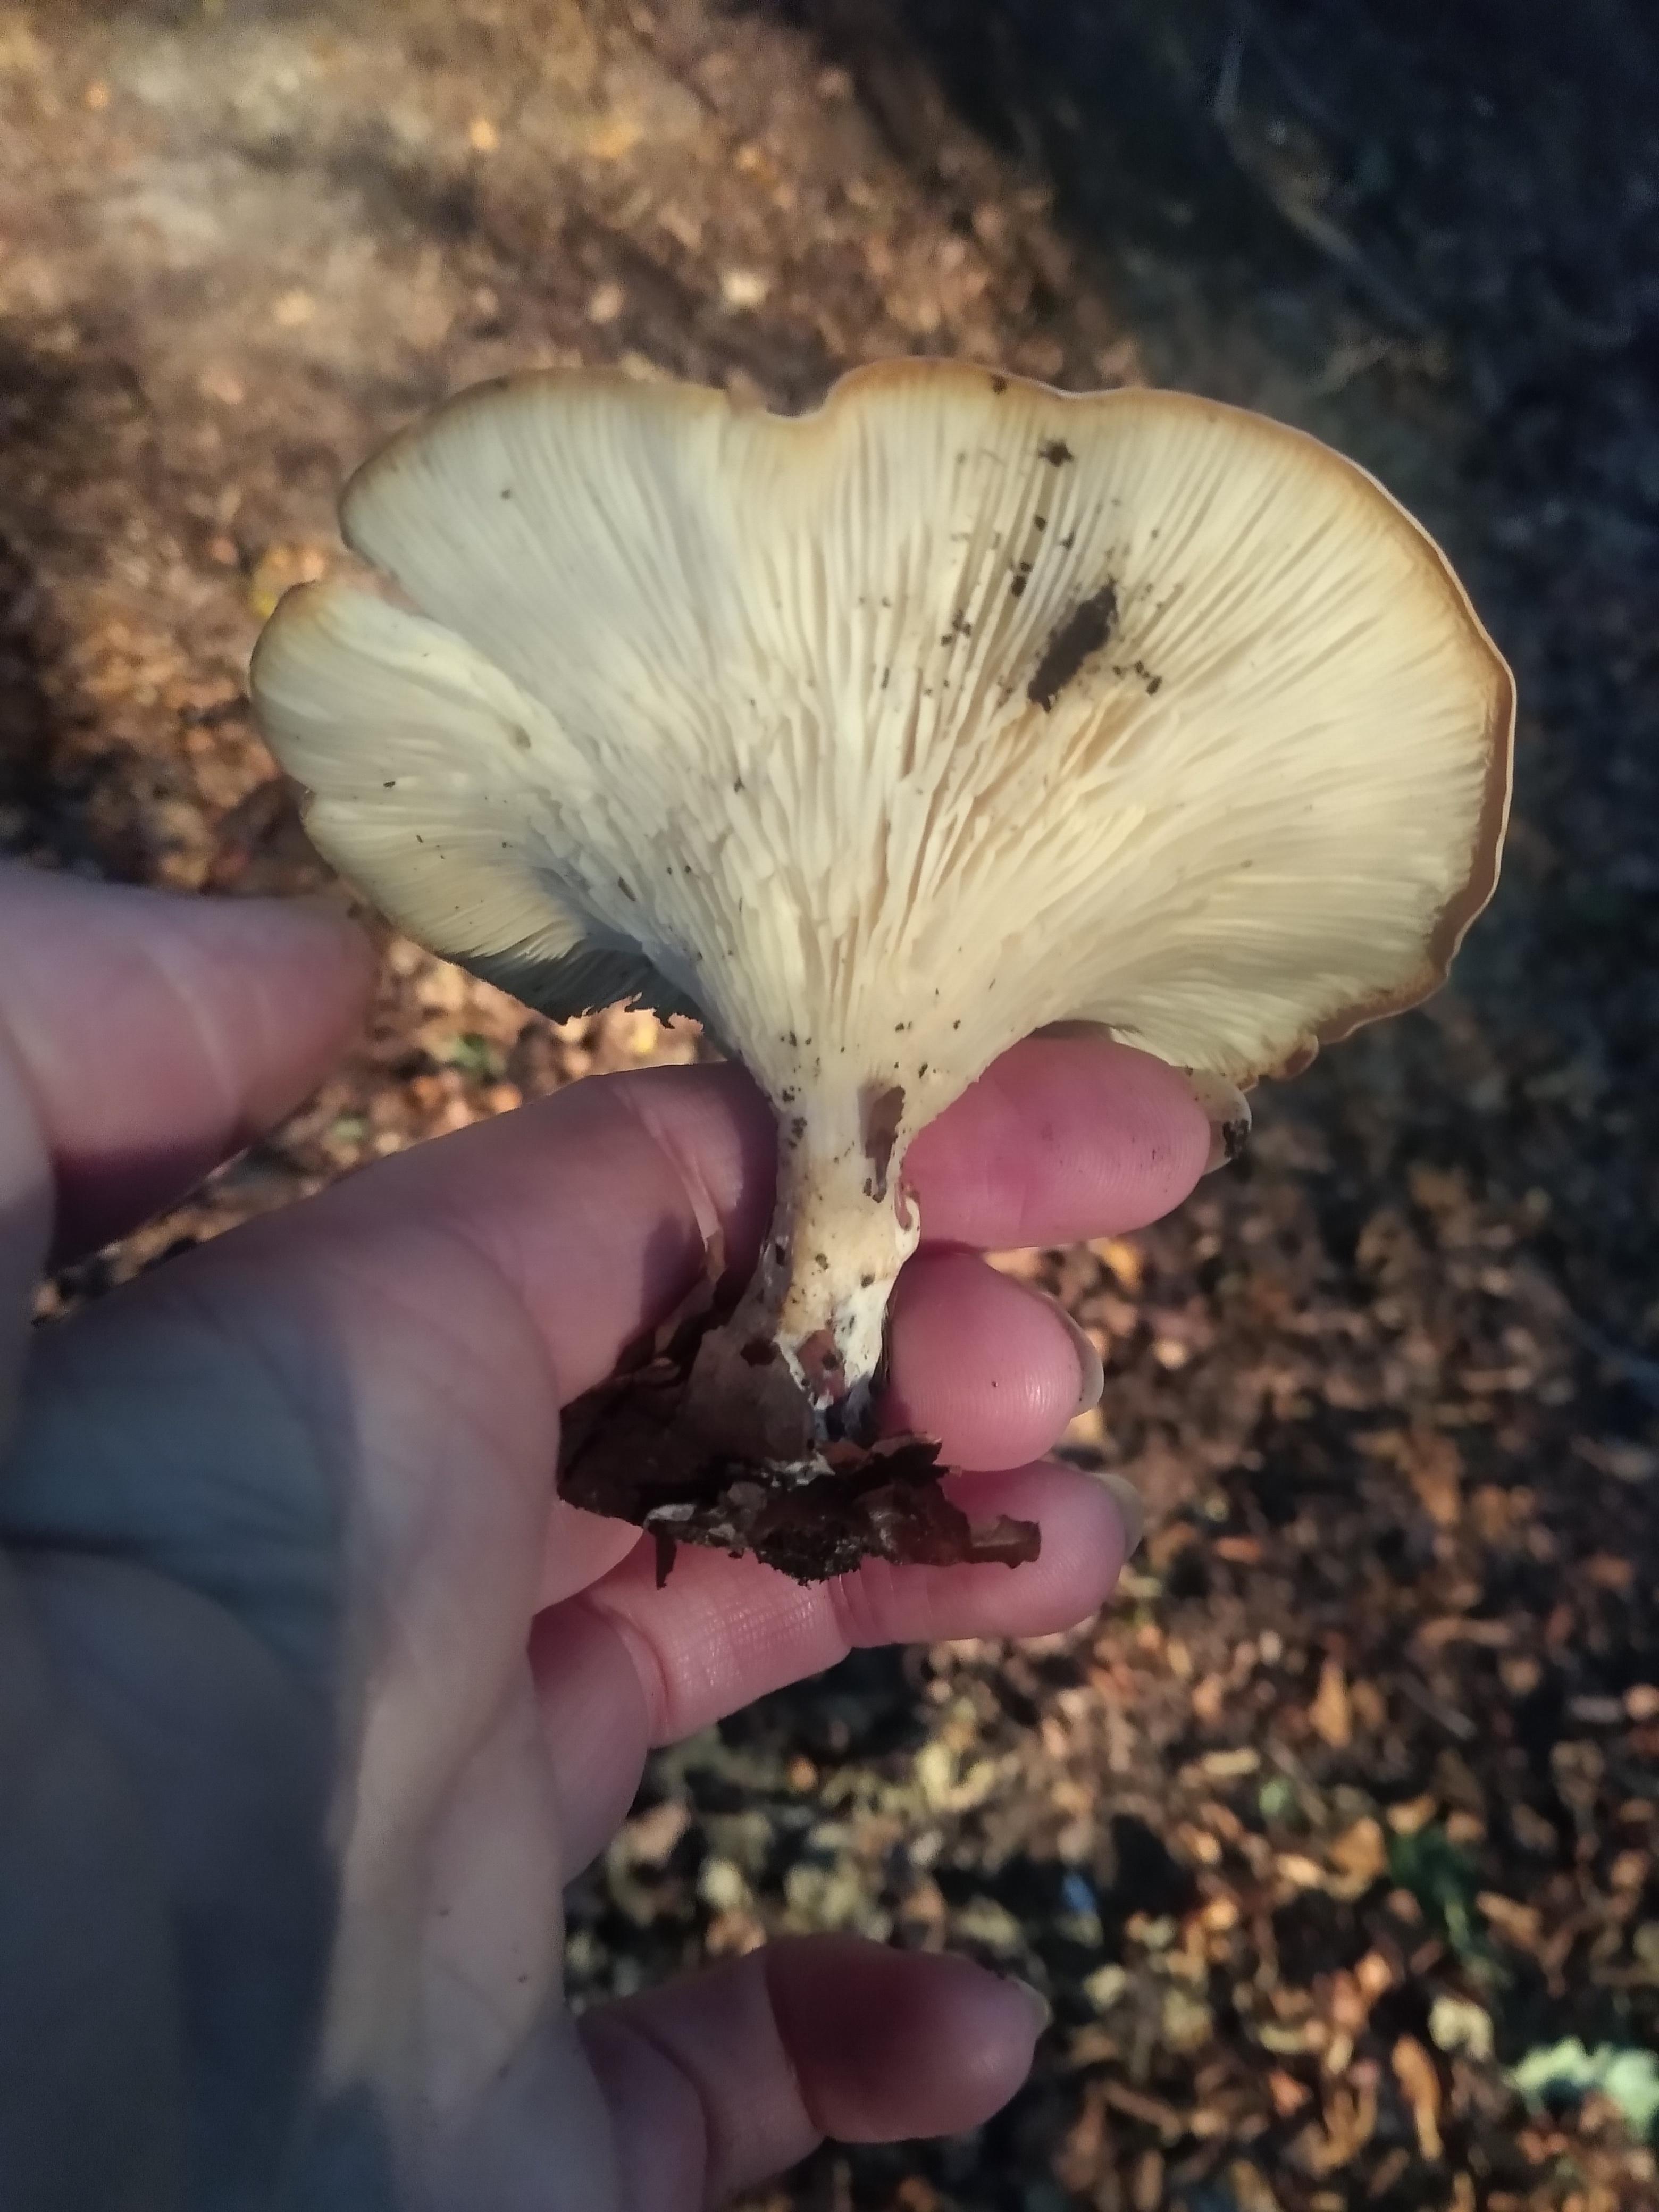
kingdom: Fungi
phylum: Basidiomycota
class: Agaricomycetes
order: Agaricales
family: Tricholomataceae
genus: Infundibulicybe
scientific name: Infundibulicybe gibba
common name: almindelig tragthat
